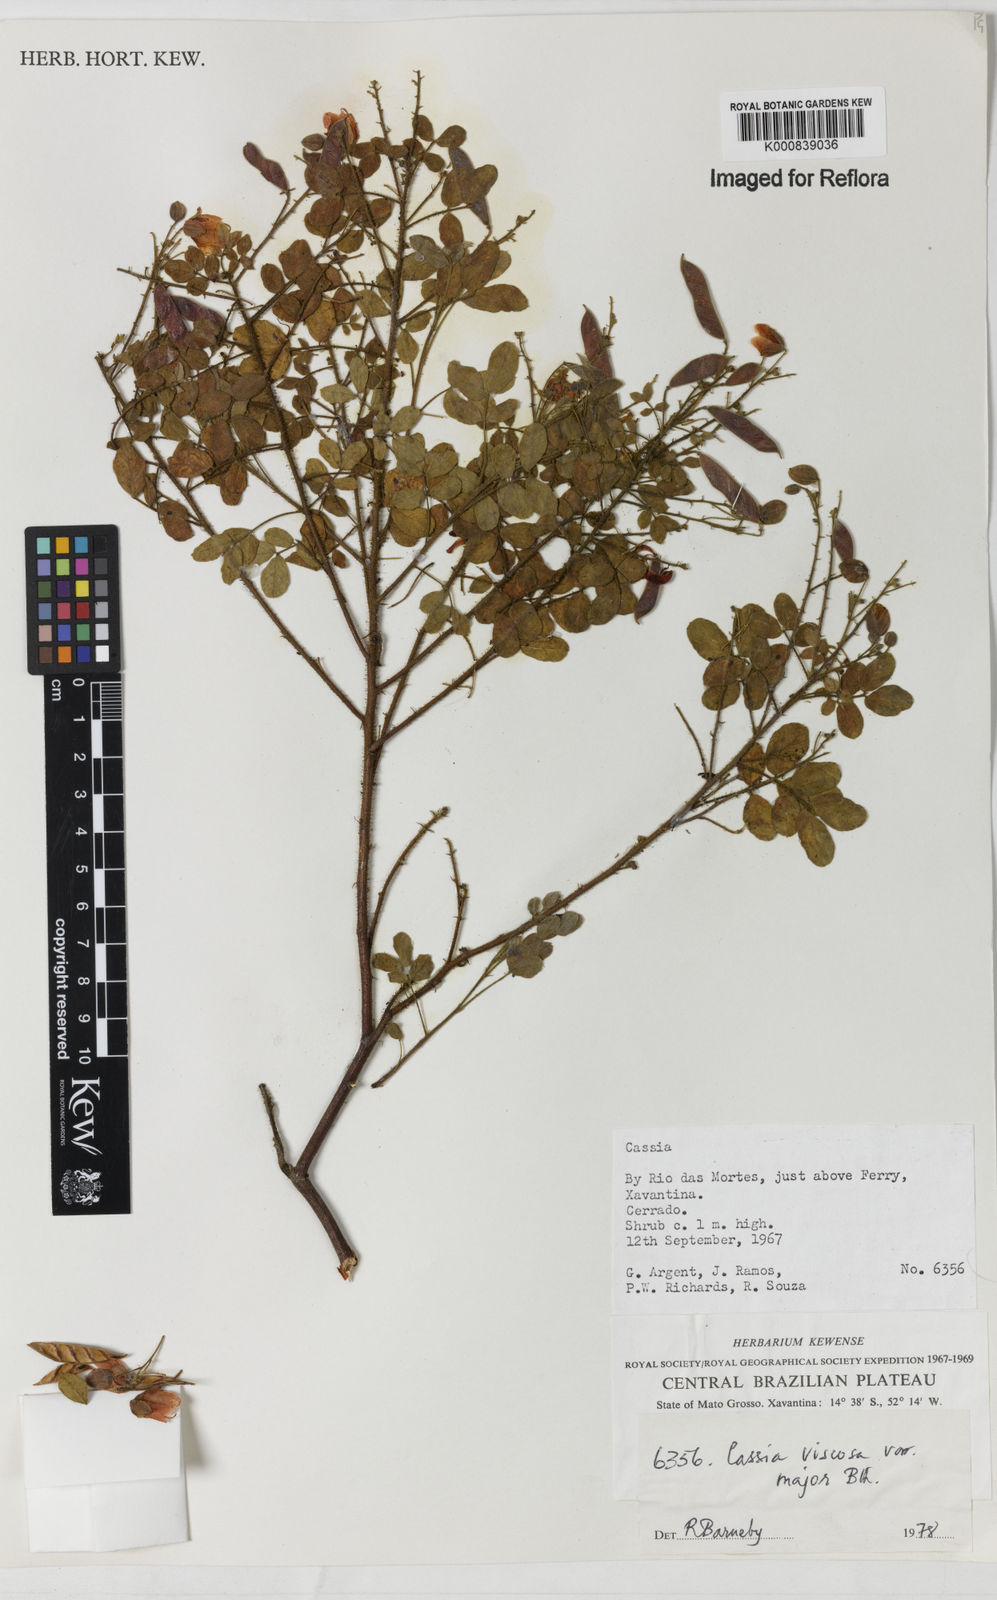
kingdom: Plantae
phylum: Tracheophyta
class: Magnoliopsida
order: Fabales
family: Fabaceae
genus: Chamaecrista
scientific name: Chamaecrista viscosa
